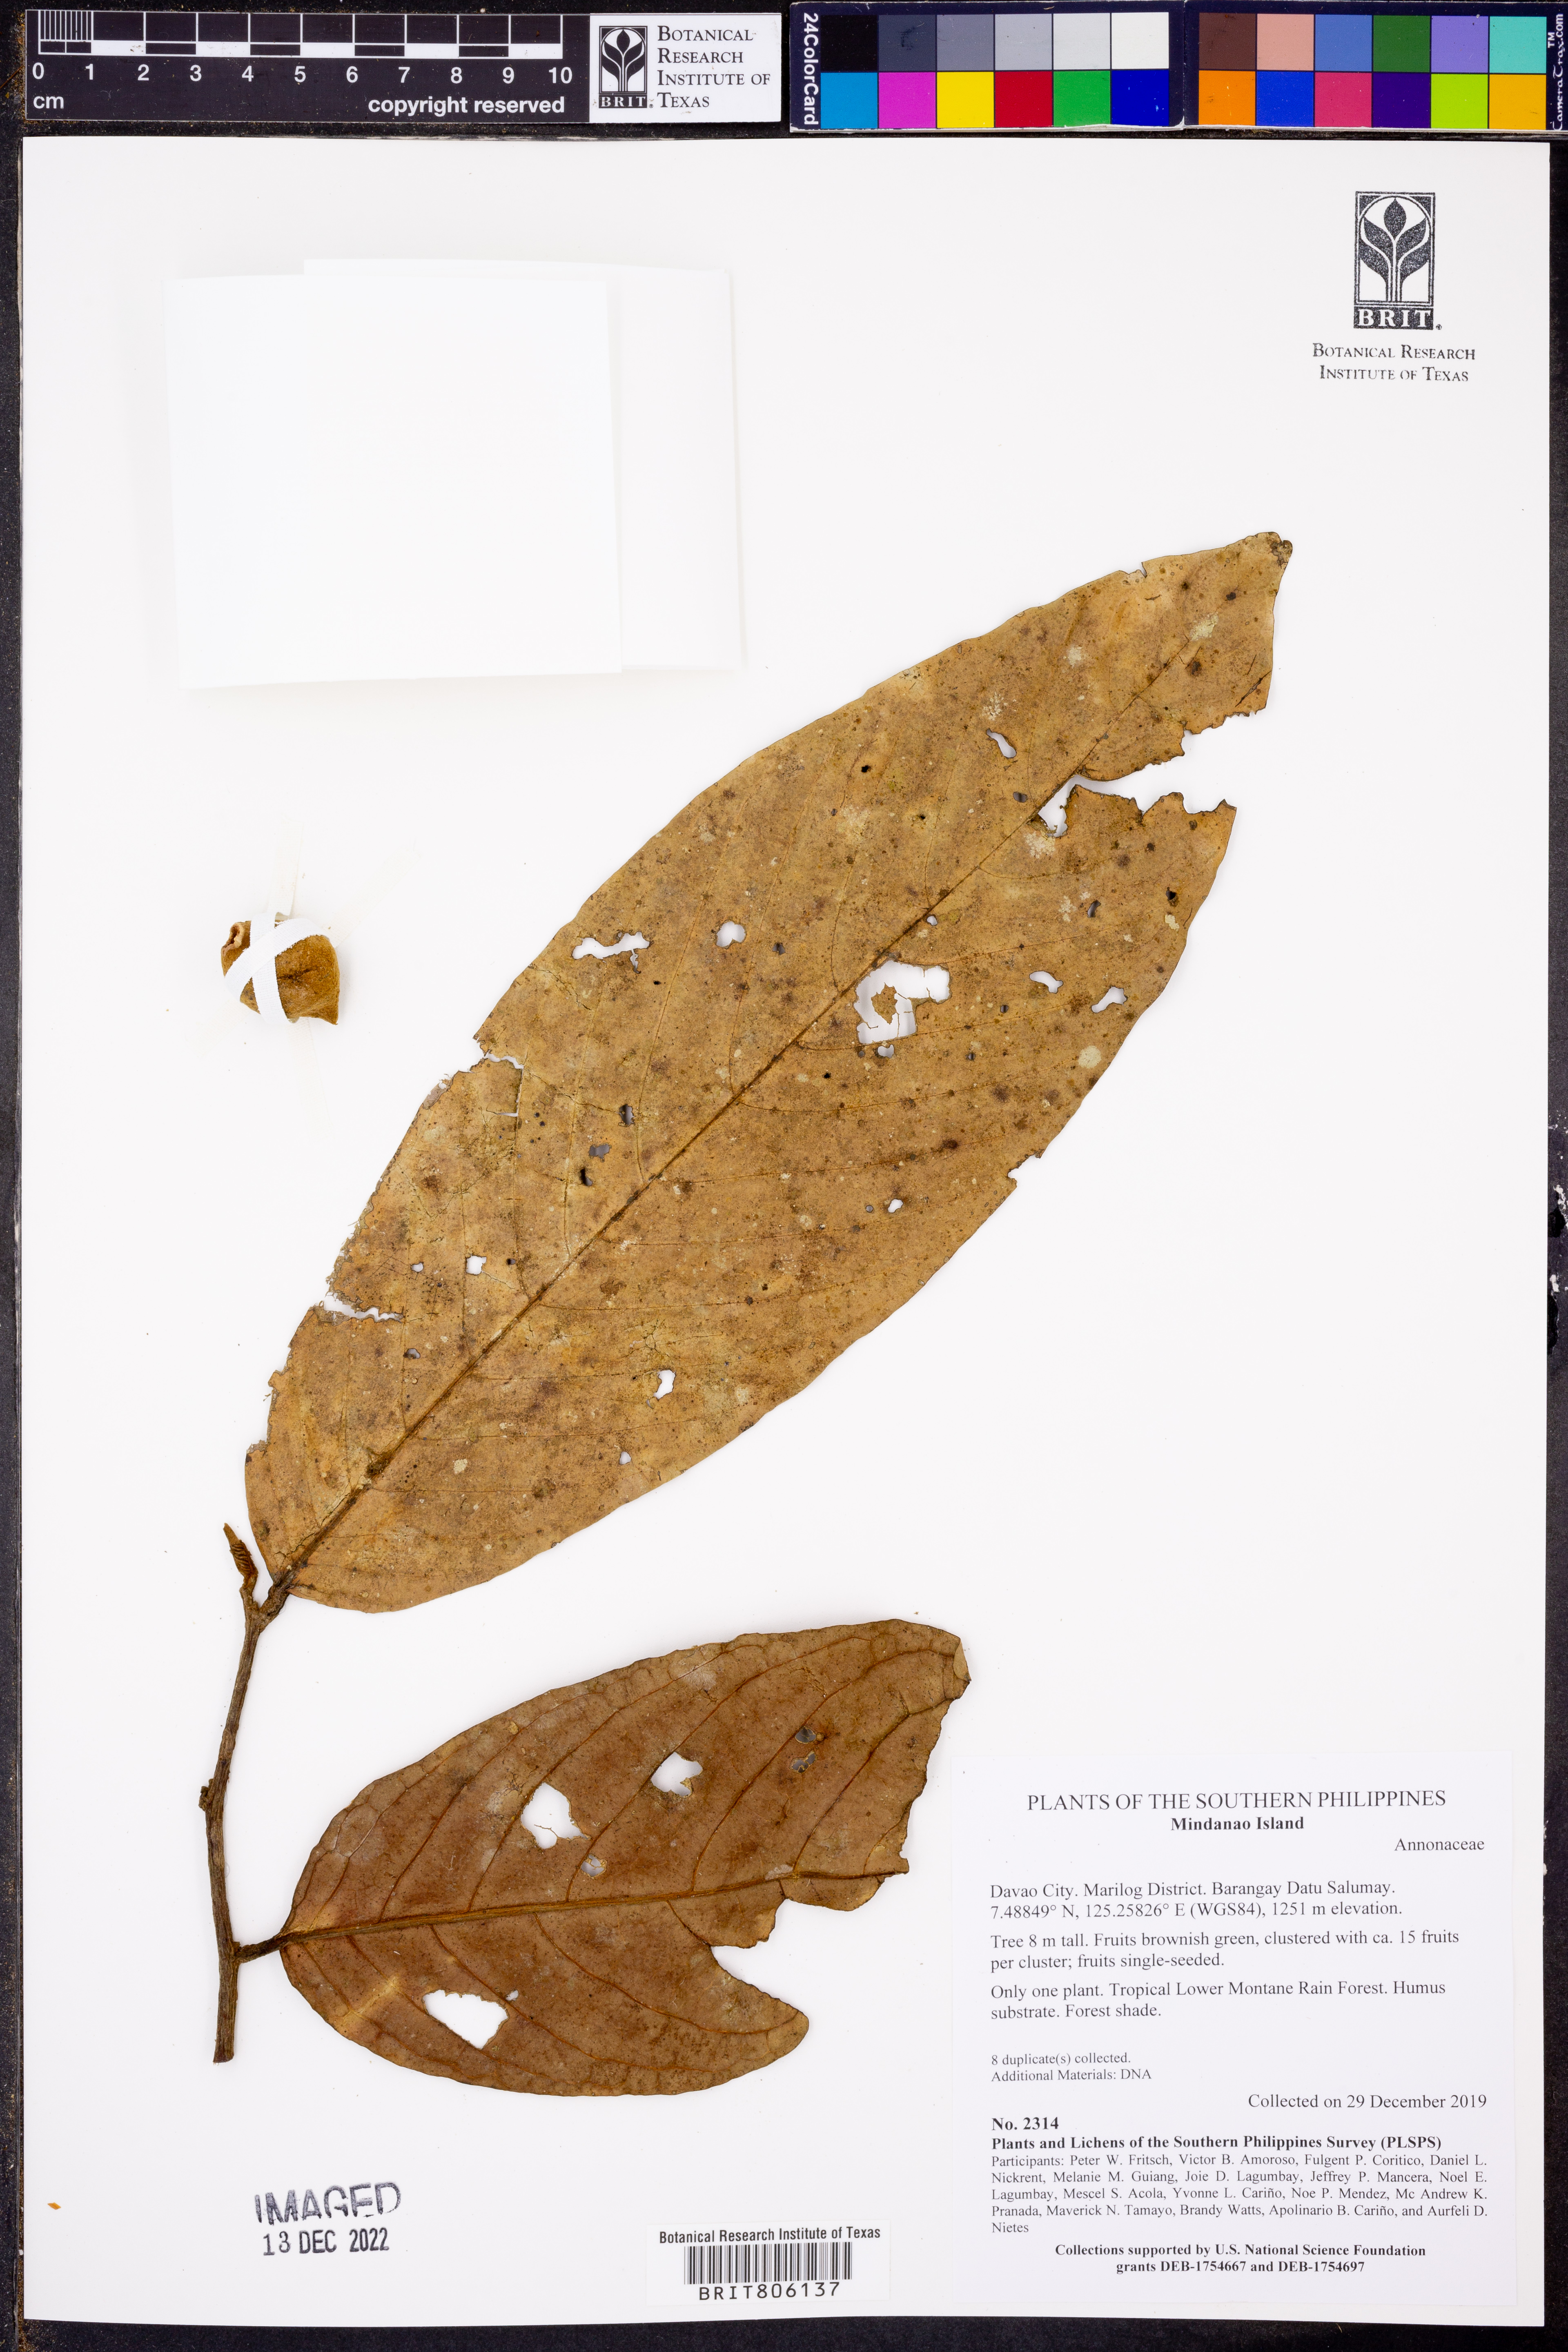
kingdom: Plantae
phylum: Tracheophyta
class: Magnoliopsida
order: Magnoliales
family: Annonaceae
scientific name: Annonaceae
